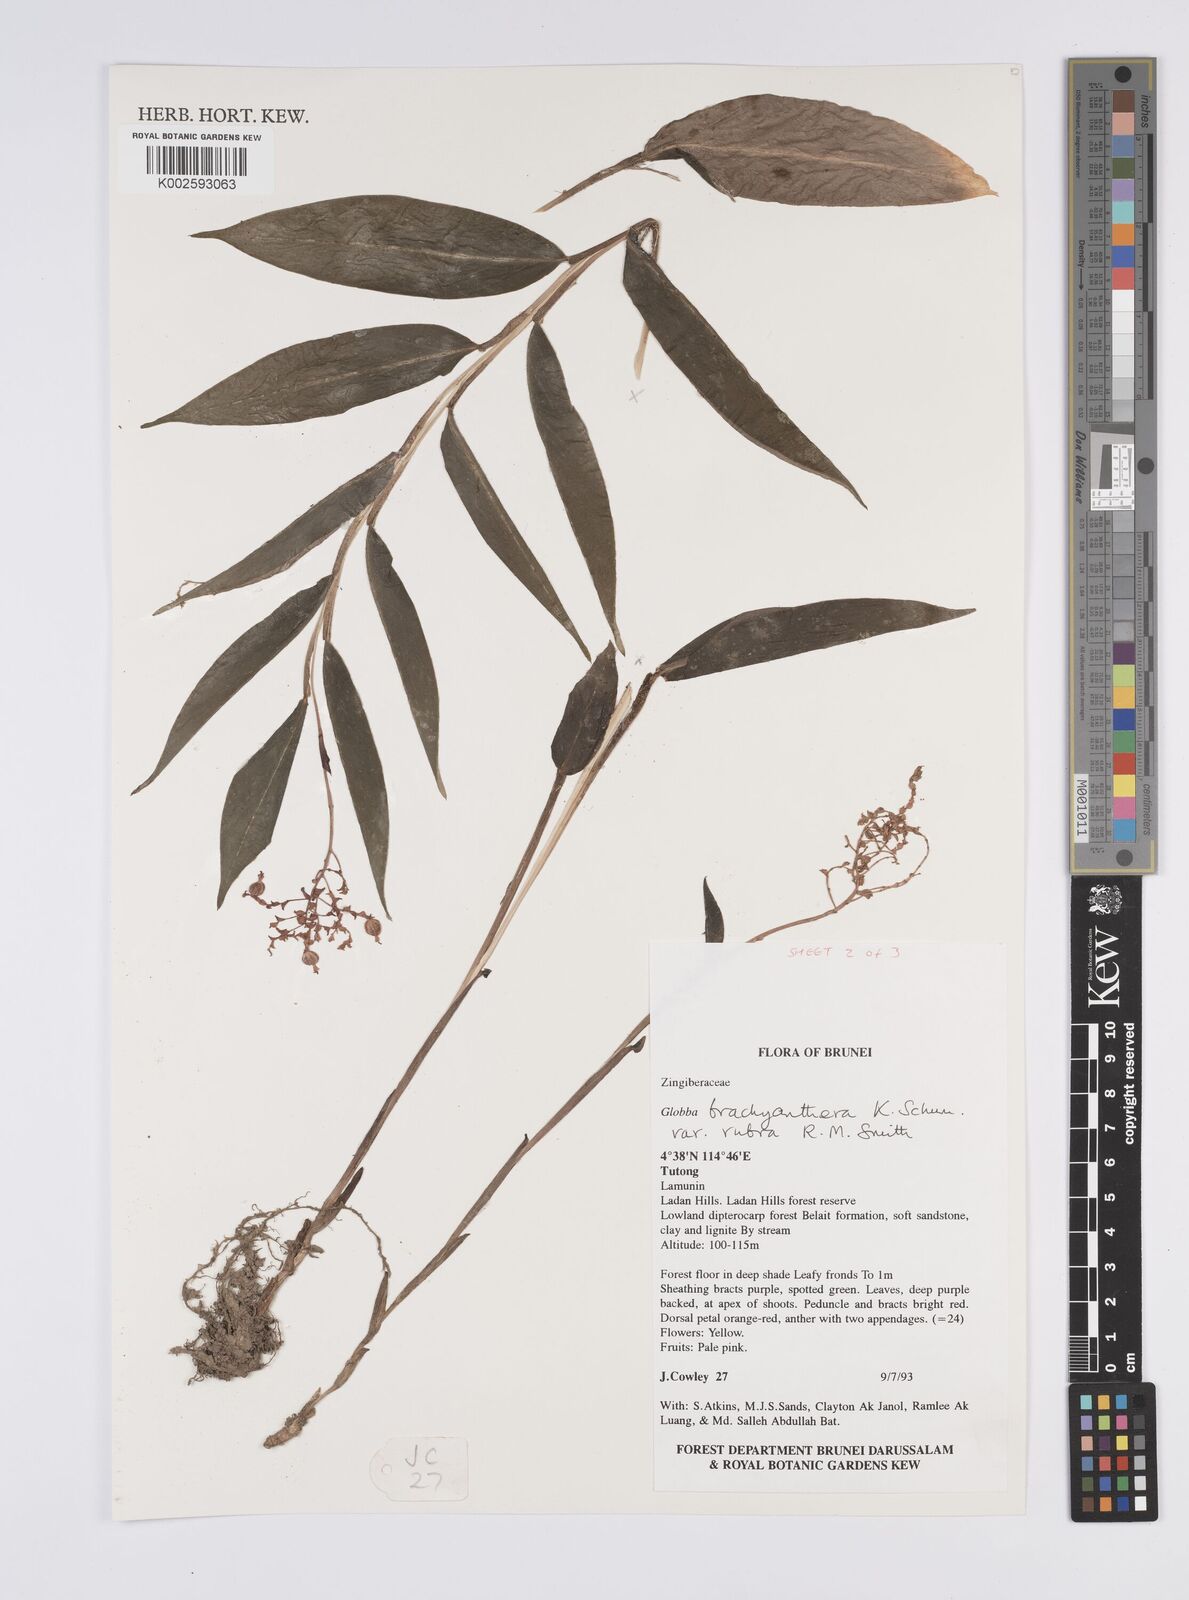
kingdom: Plantae
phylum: Tracheophyta
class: Liliopsida
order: Zingiberales
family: Zingiberaceae
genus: Globba
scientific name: Globba brachyanthera
